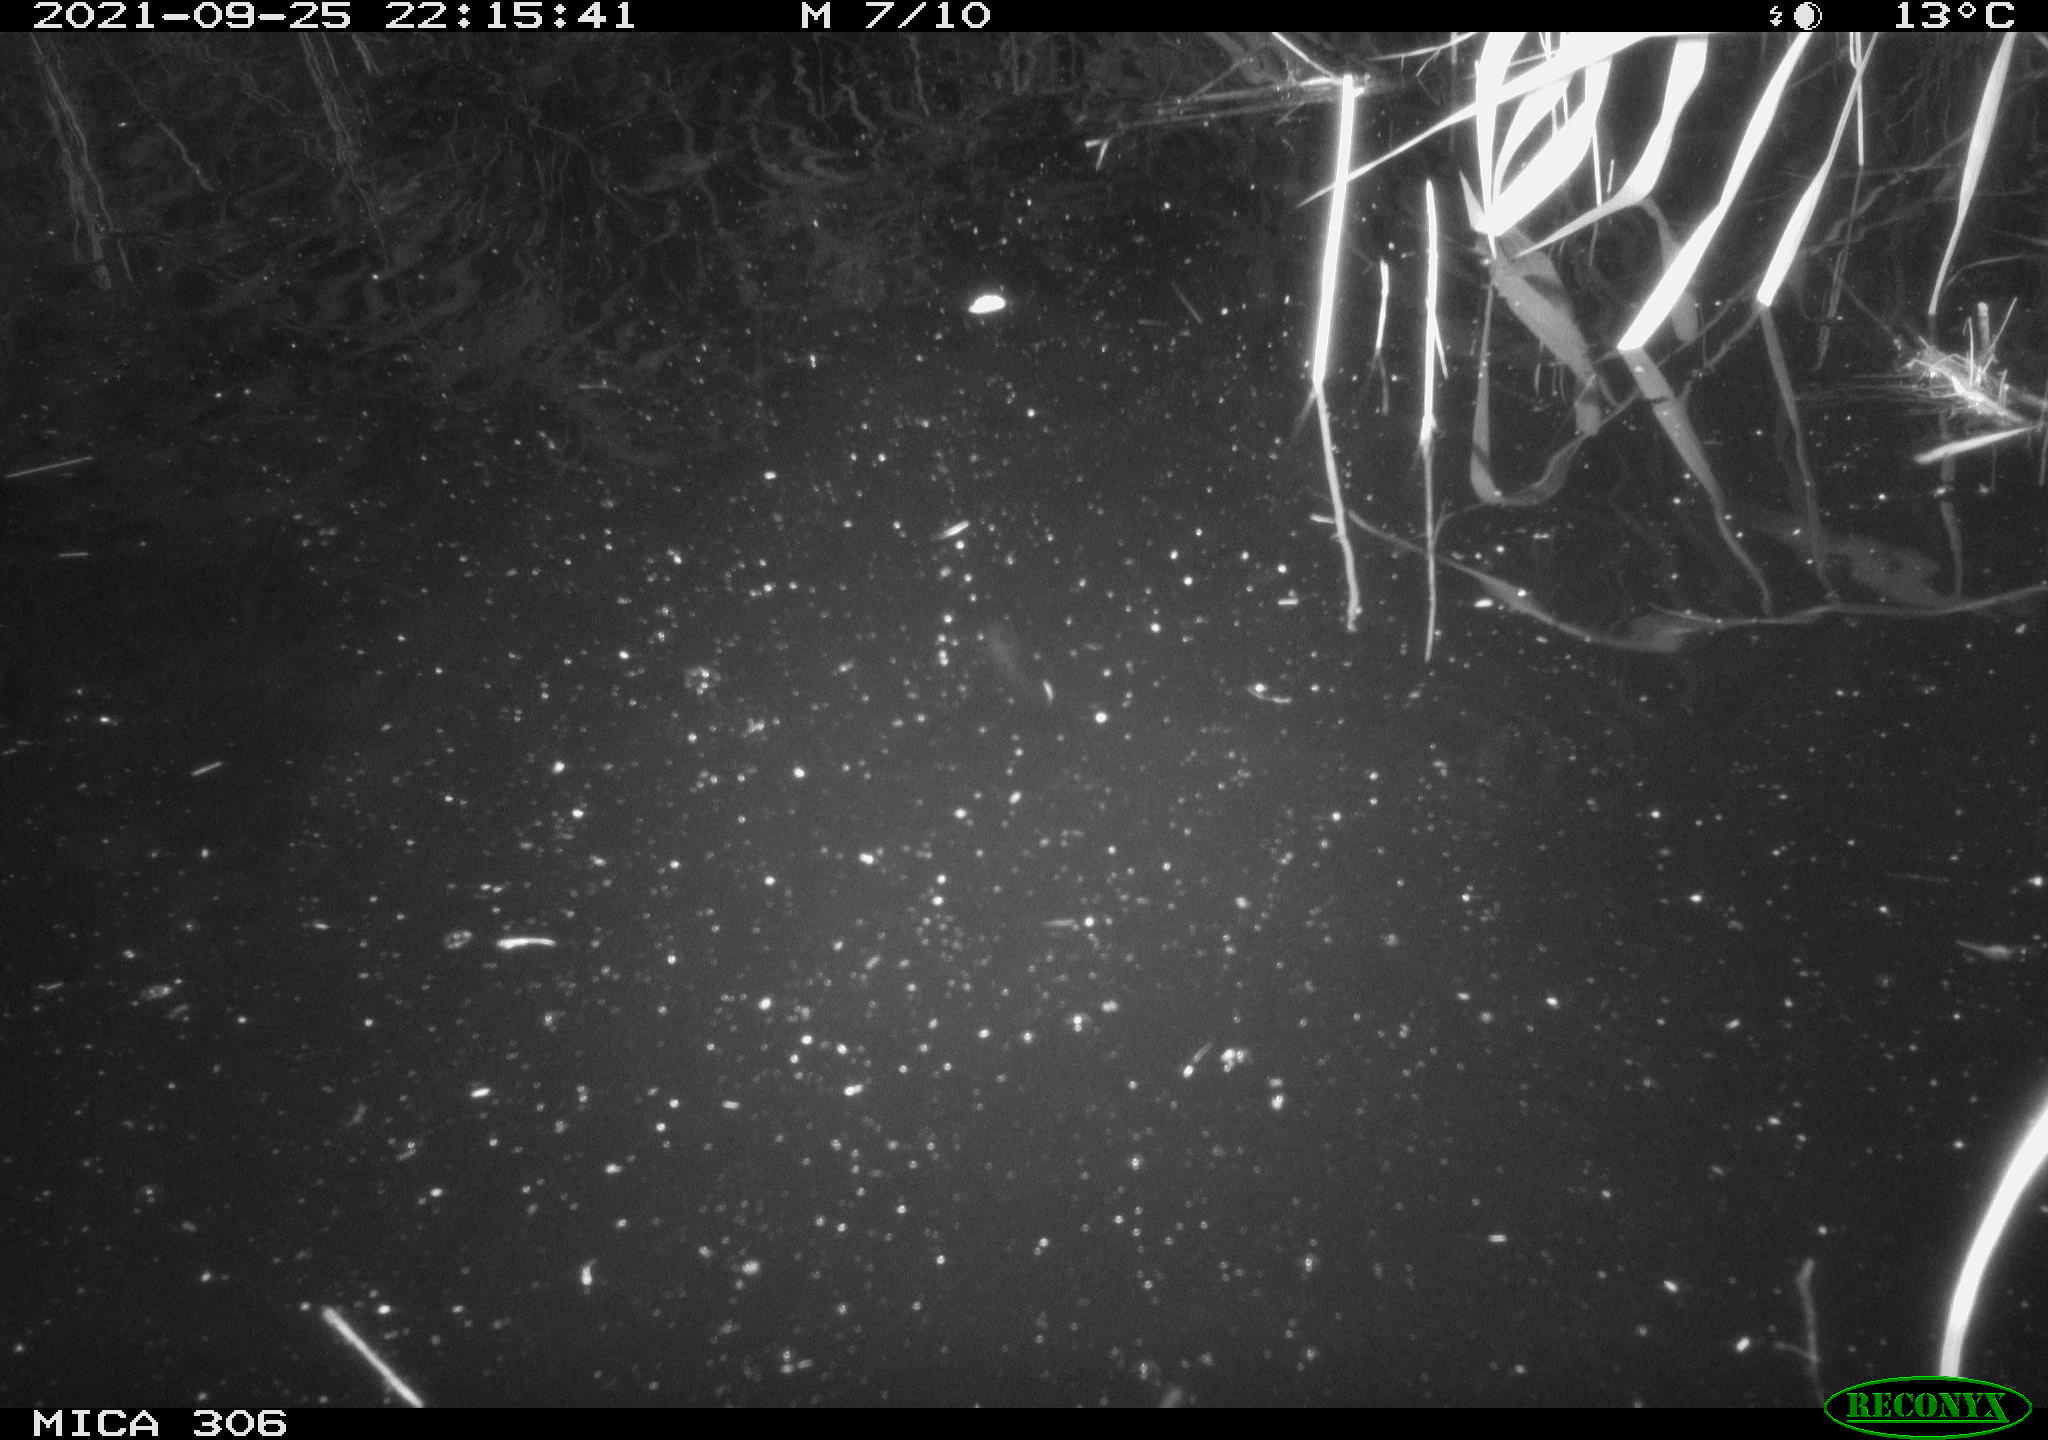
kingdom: Animalia
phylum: Chordata
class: Mammalia
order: Rodentia
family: Cricetidae
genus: Ondatra
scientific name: Ondatra zibethicus
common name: Muskrat
